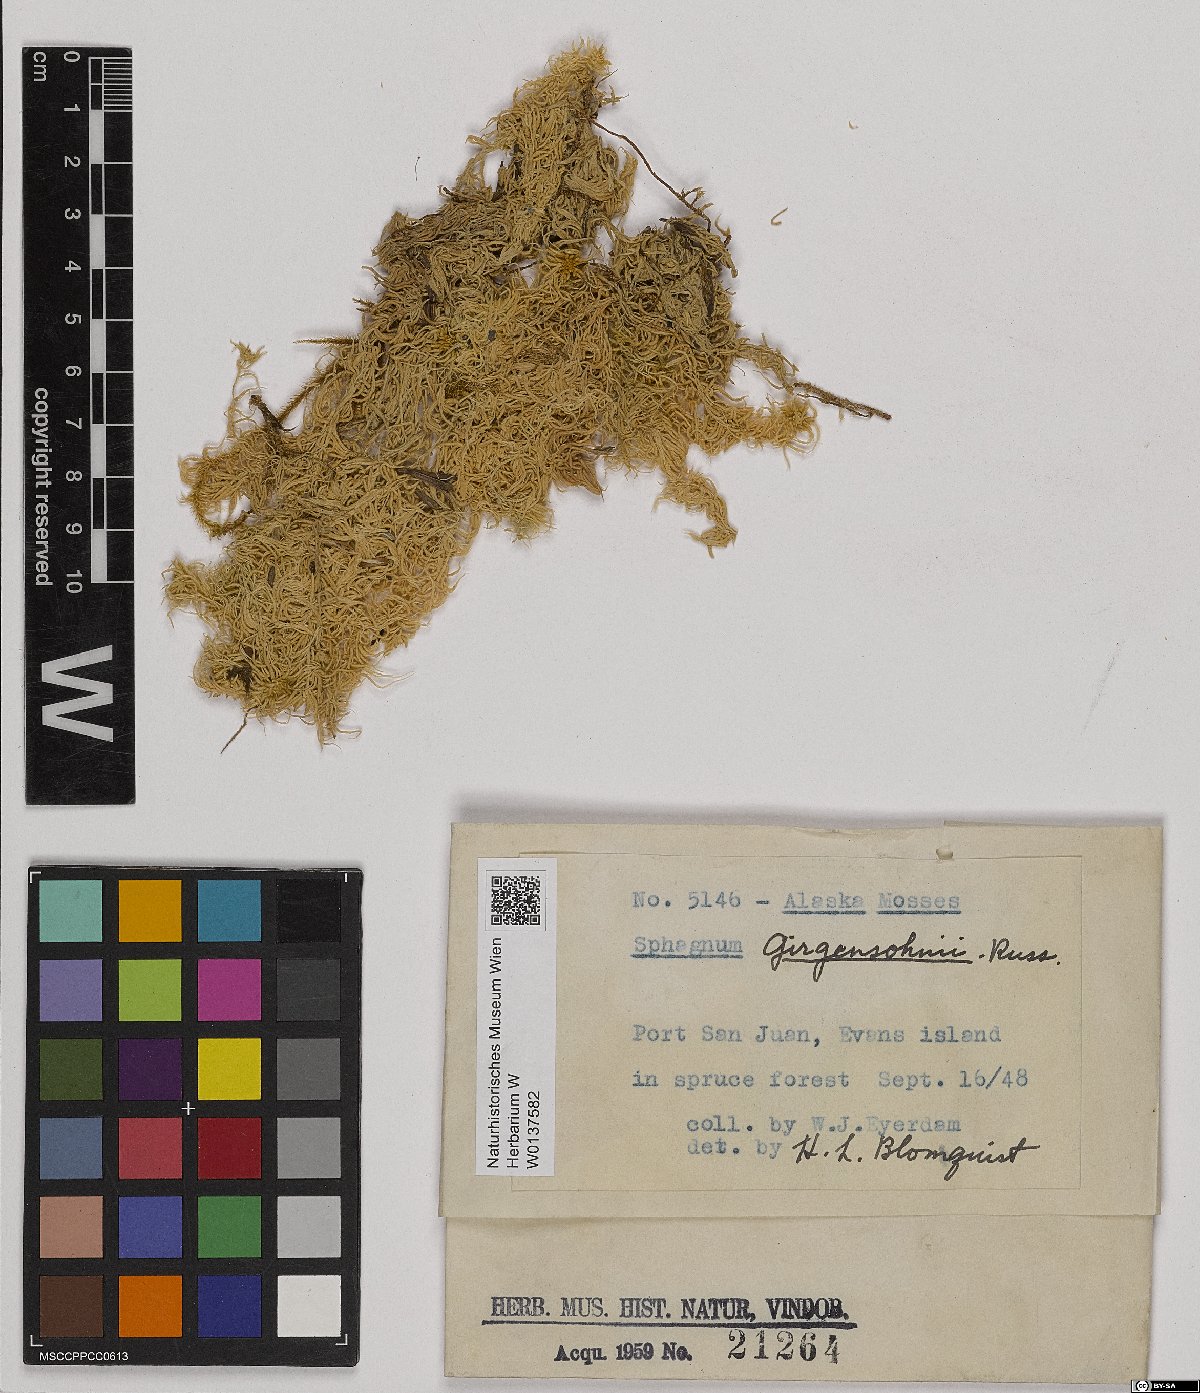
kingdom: Plantae
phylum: Bryophyta
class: Sphagnopsida
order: Sphagnales
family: Sphagnaceae
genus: Sphagnum
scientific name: Sphagnum girgensohnii
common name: Girgensohn's peat moss
